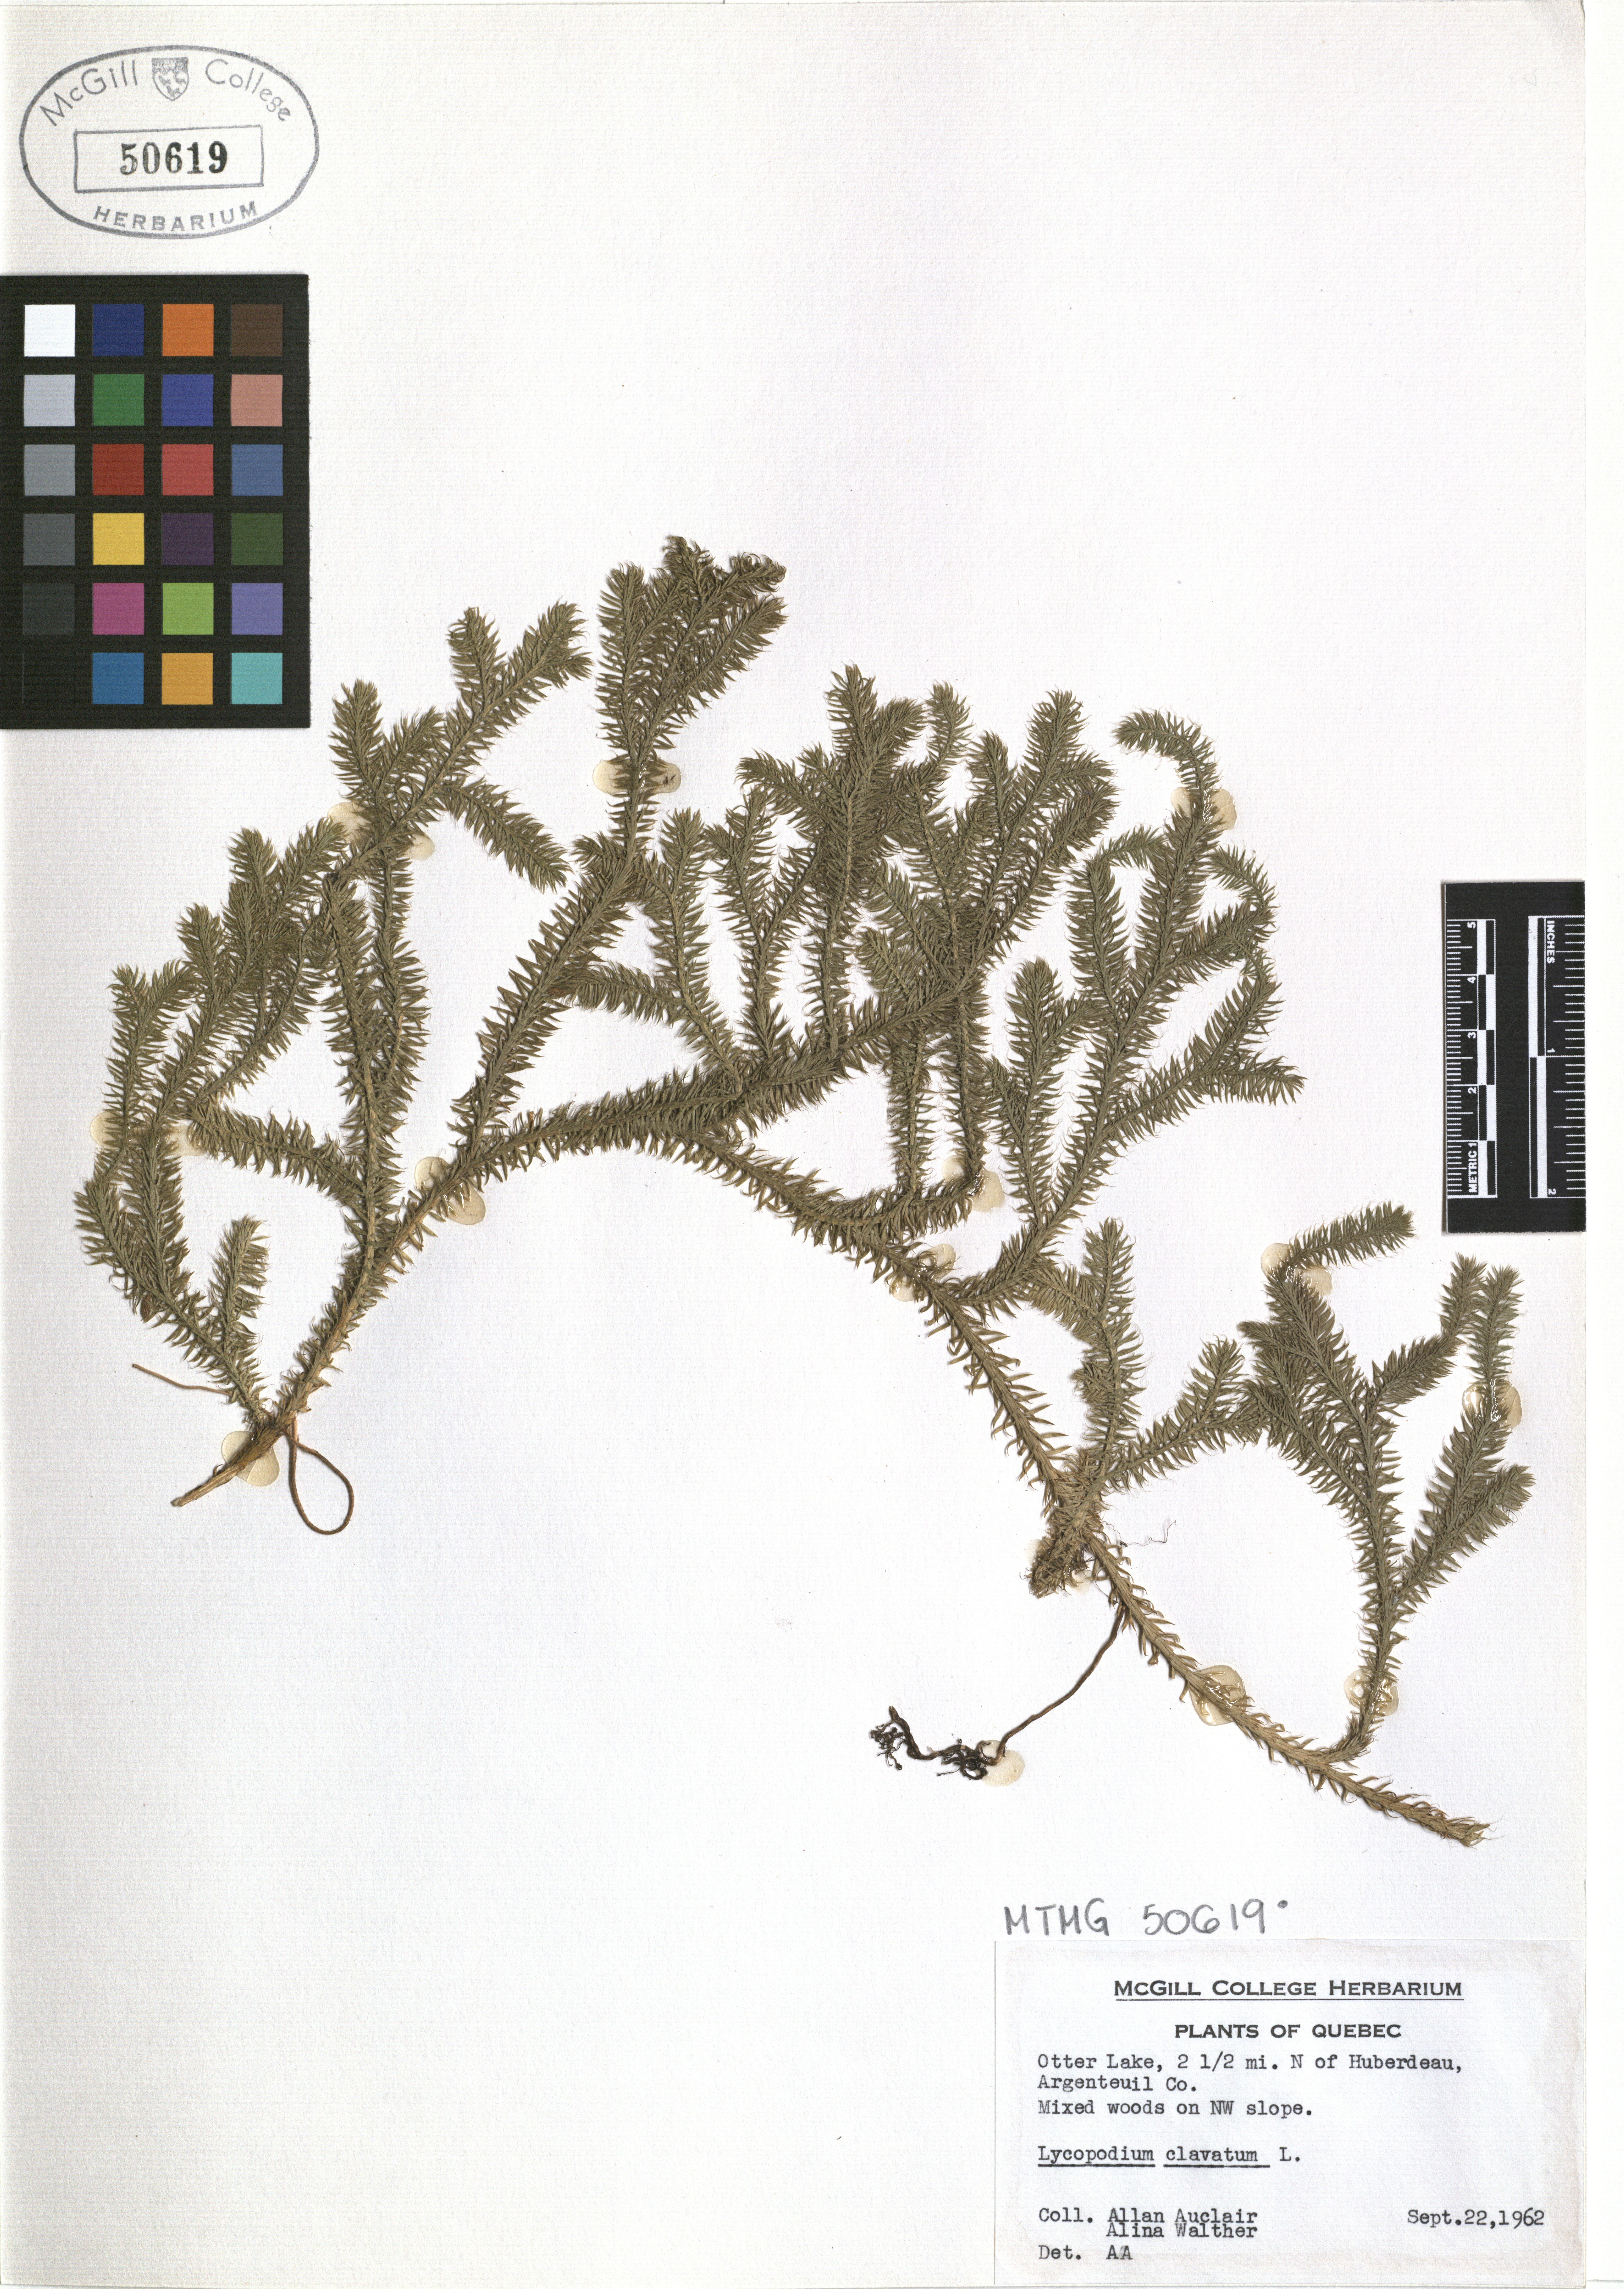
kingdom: Plantae
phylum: Tracheophyta
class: Lycopodiopsida
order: Lycopodiales
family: Lycopodiaceae
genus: Lycopodium
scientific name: Lycopodium clavatum
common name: Stag's-horn clubmoss
